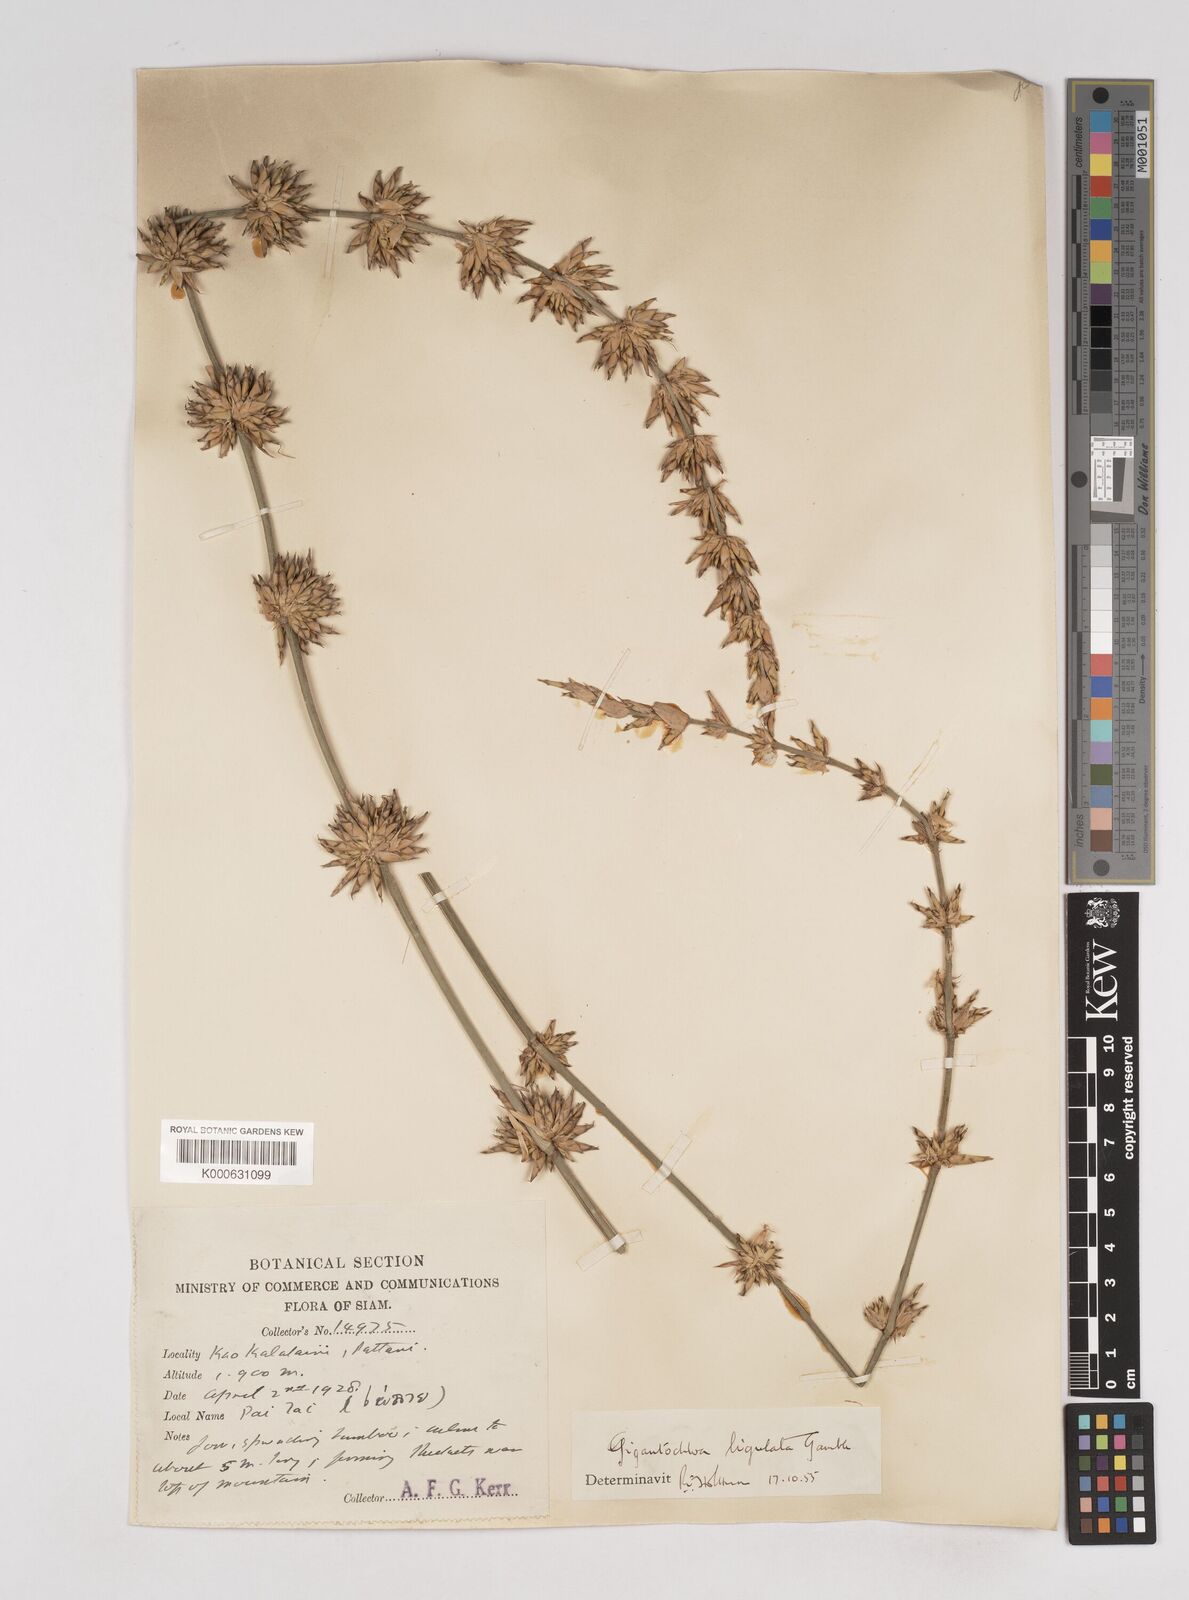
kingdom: Plantae
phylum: Tracheophyta
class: Liliopsida
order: Poales
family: Poaceae
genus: Gigantochloa
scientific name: Gigantochloa ligulata
